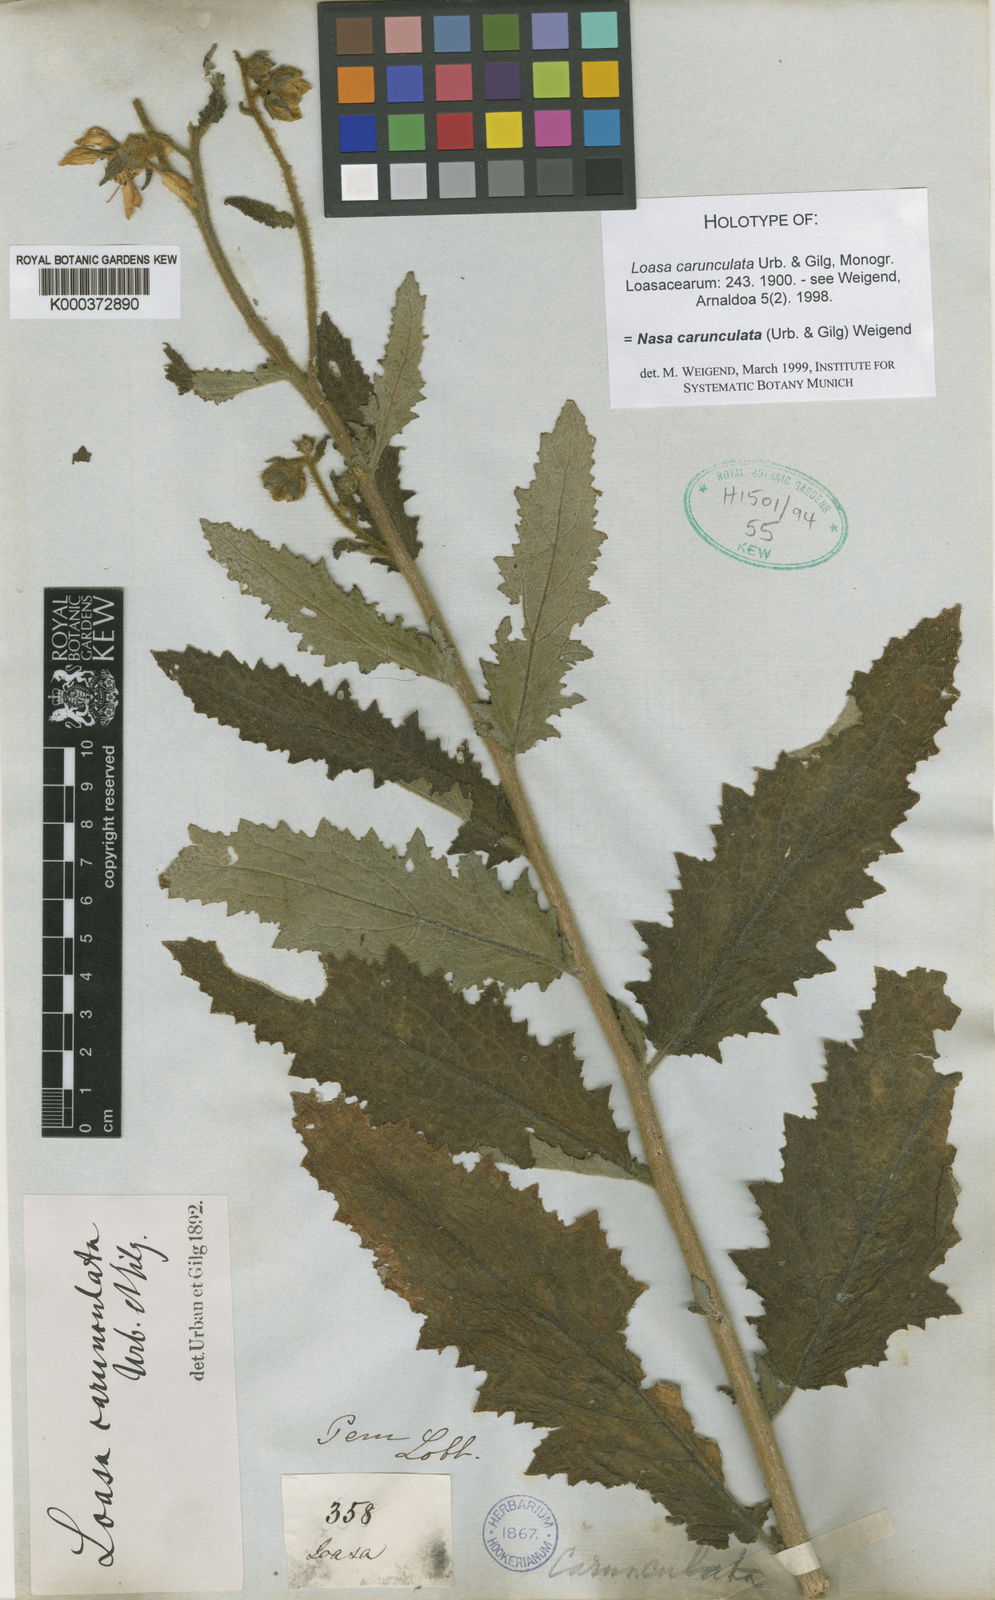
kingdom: Plantae
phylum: Tracheophyta
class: Magnoliopsida
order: Cornales
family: Loasaceae
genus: Nasa
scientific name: Nasa carunculata
